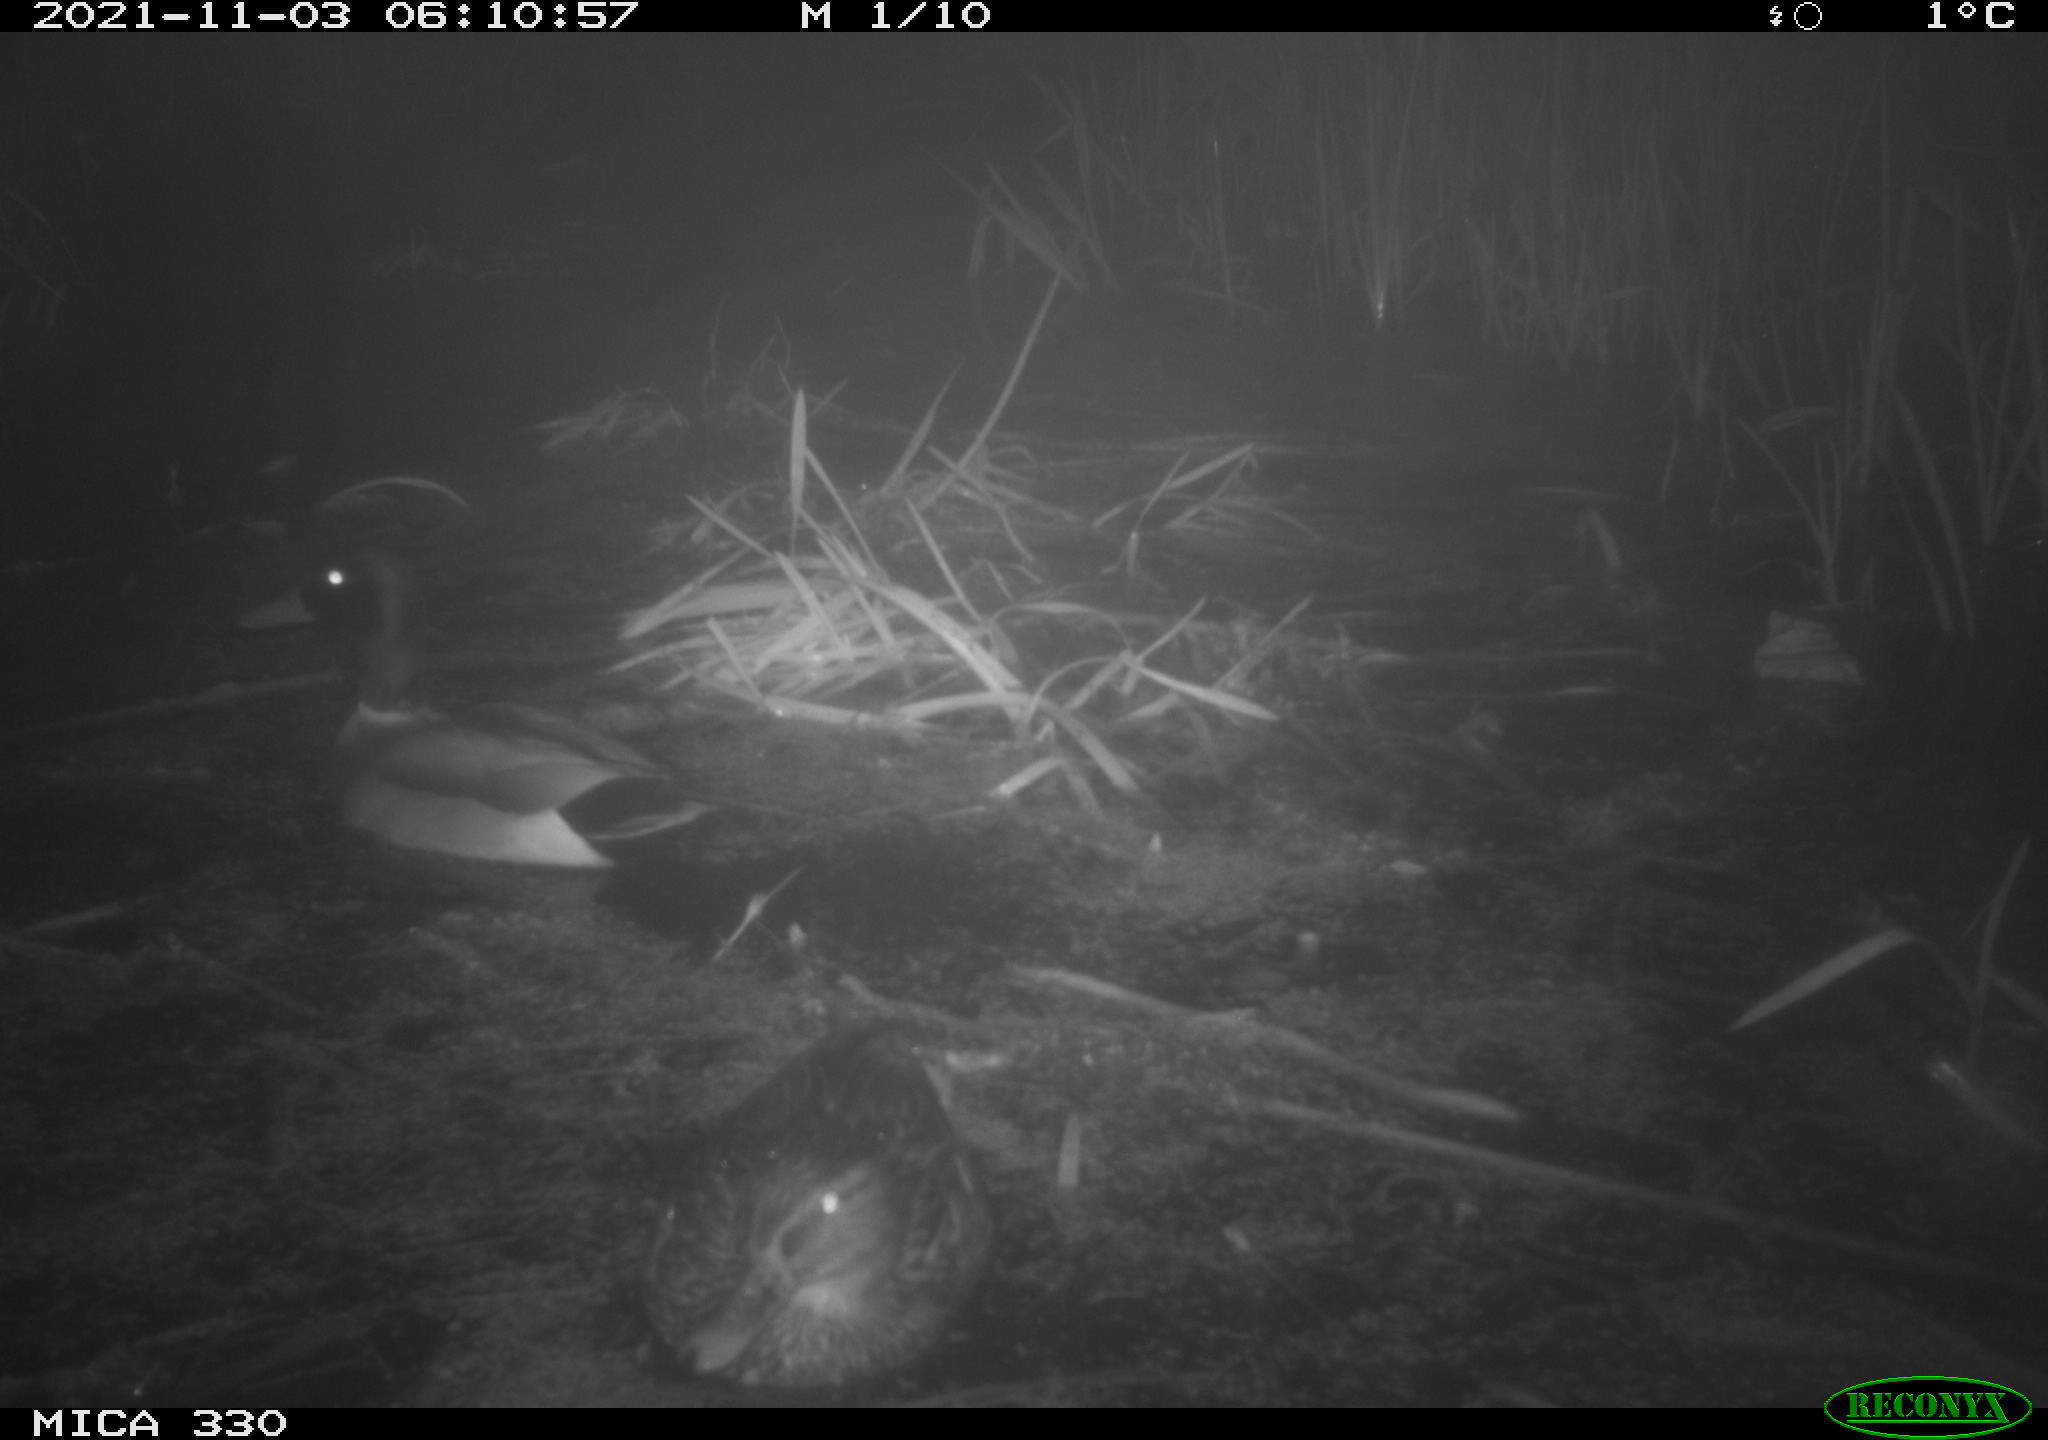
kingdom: Animalia
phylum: Chordata
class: Aves
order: Anseriformes
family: Anatidae
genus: Anas
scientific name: Anas platyrhynchos
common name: Mallard
